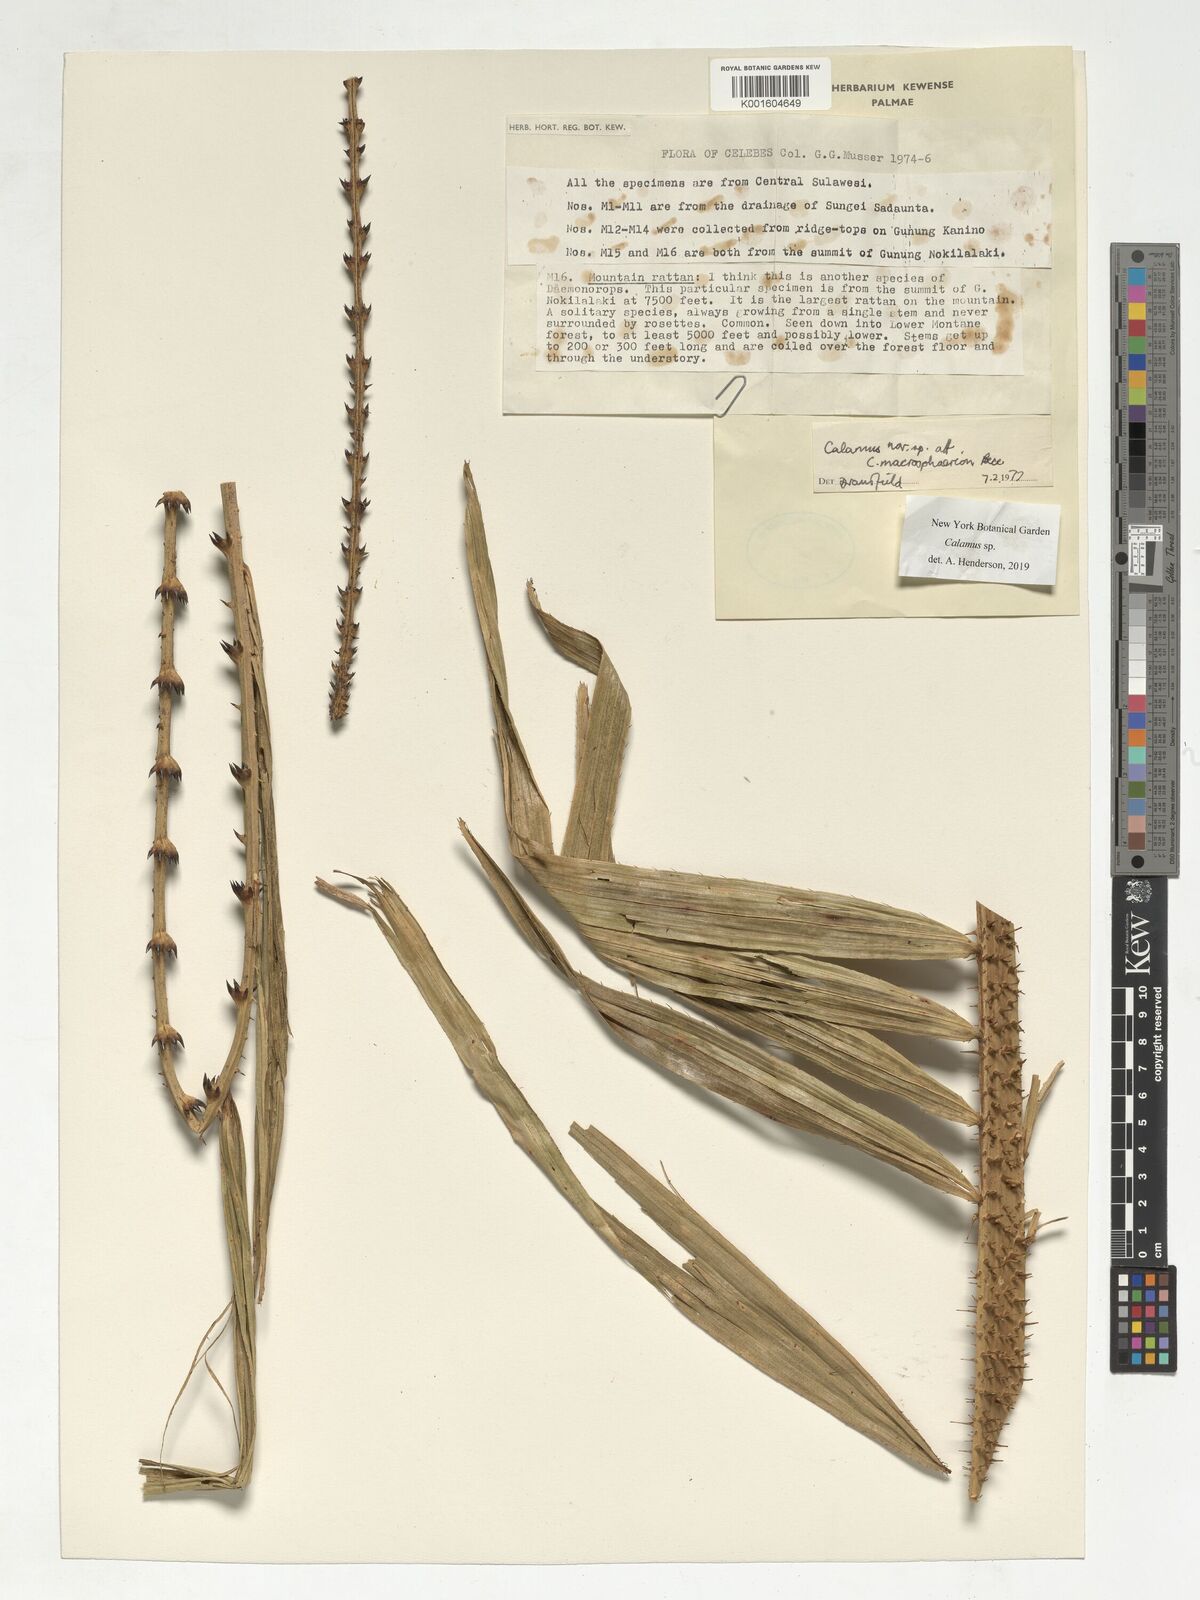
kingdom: Plantae
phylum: Tracheophyta
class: Liliopsida
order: Arecales
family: Arecaceae
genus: Calamus
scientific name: Calamus
